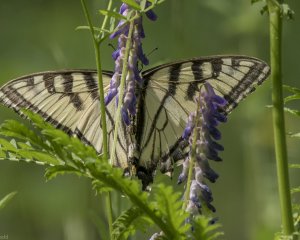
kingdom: Animalia
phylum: Arthropoda
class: Insecta
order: Lepidoptera
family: Papilionidae
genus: Pterourus
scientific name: Pterourus canadensis
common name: Canadian Tiger Swallowtail
